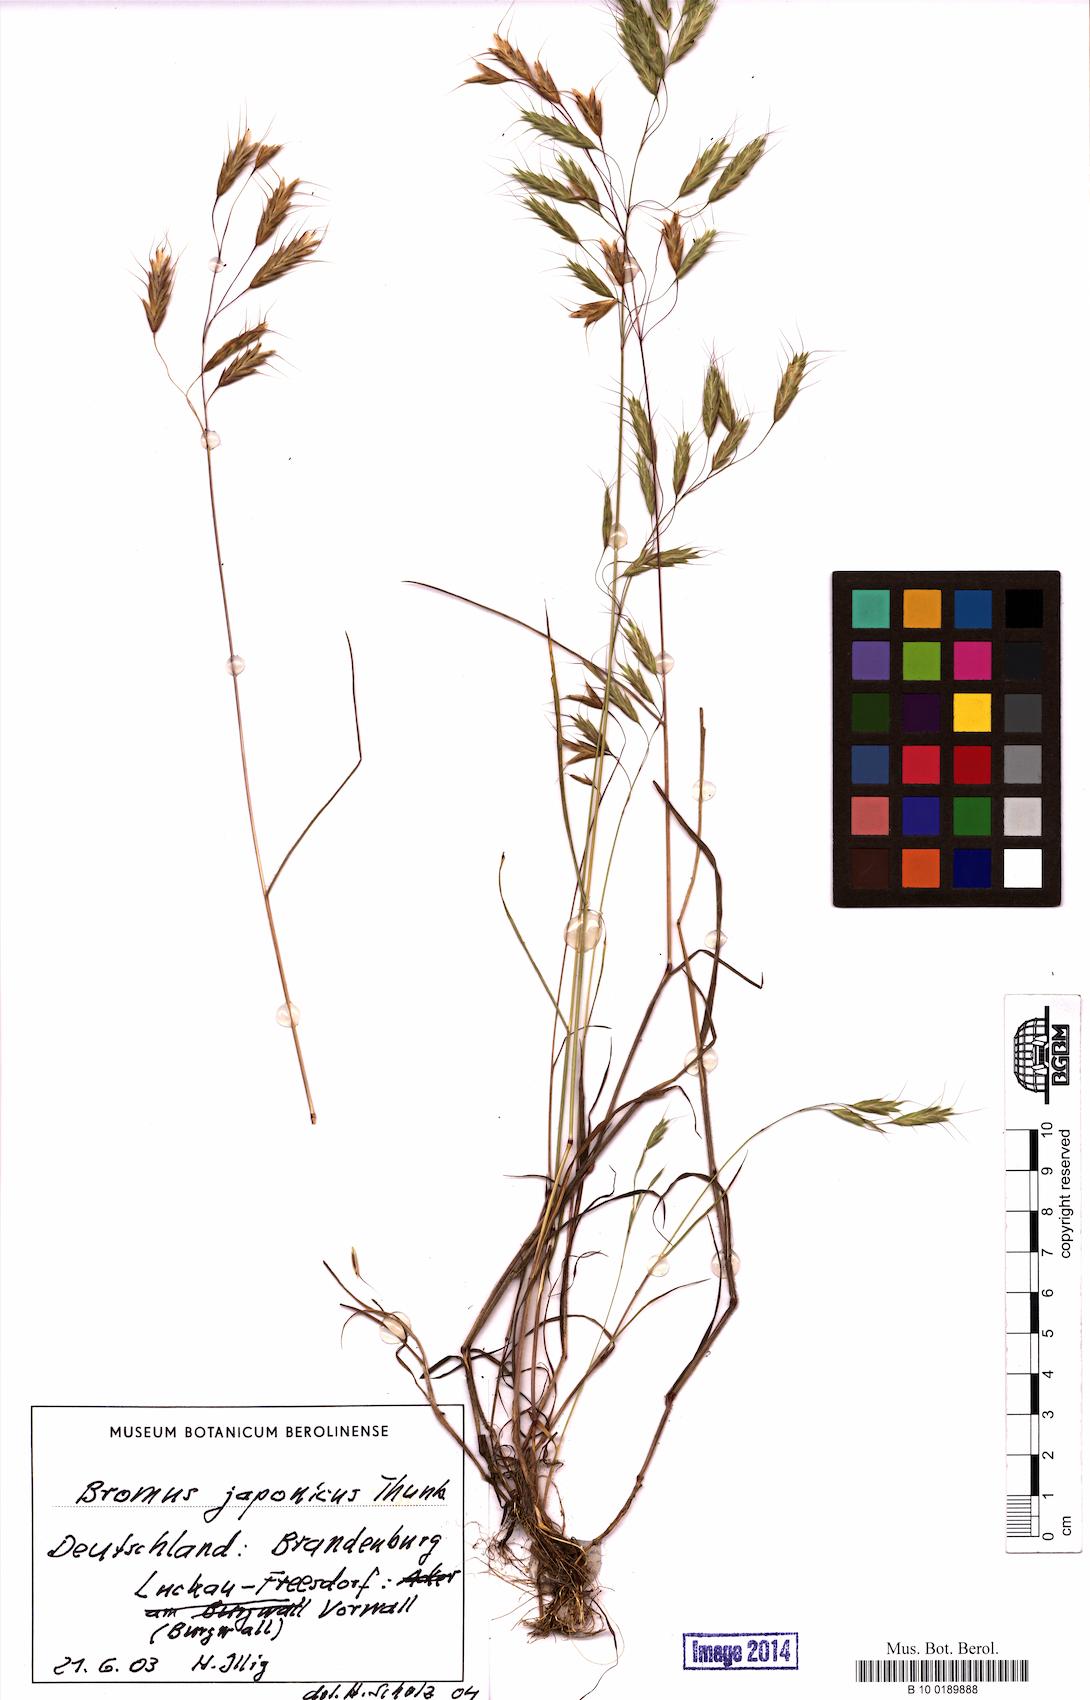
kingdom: Plantae
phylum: Tracheophyta
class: Liliopsida
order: Poales
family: Poaceae
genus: Bromus
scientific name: Bromus japonicus
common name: Japanese brome
